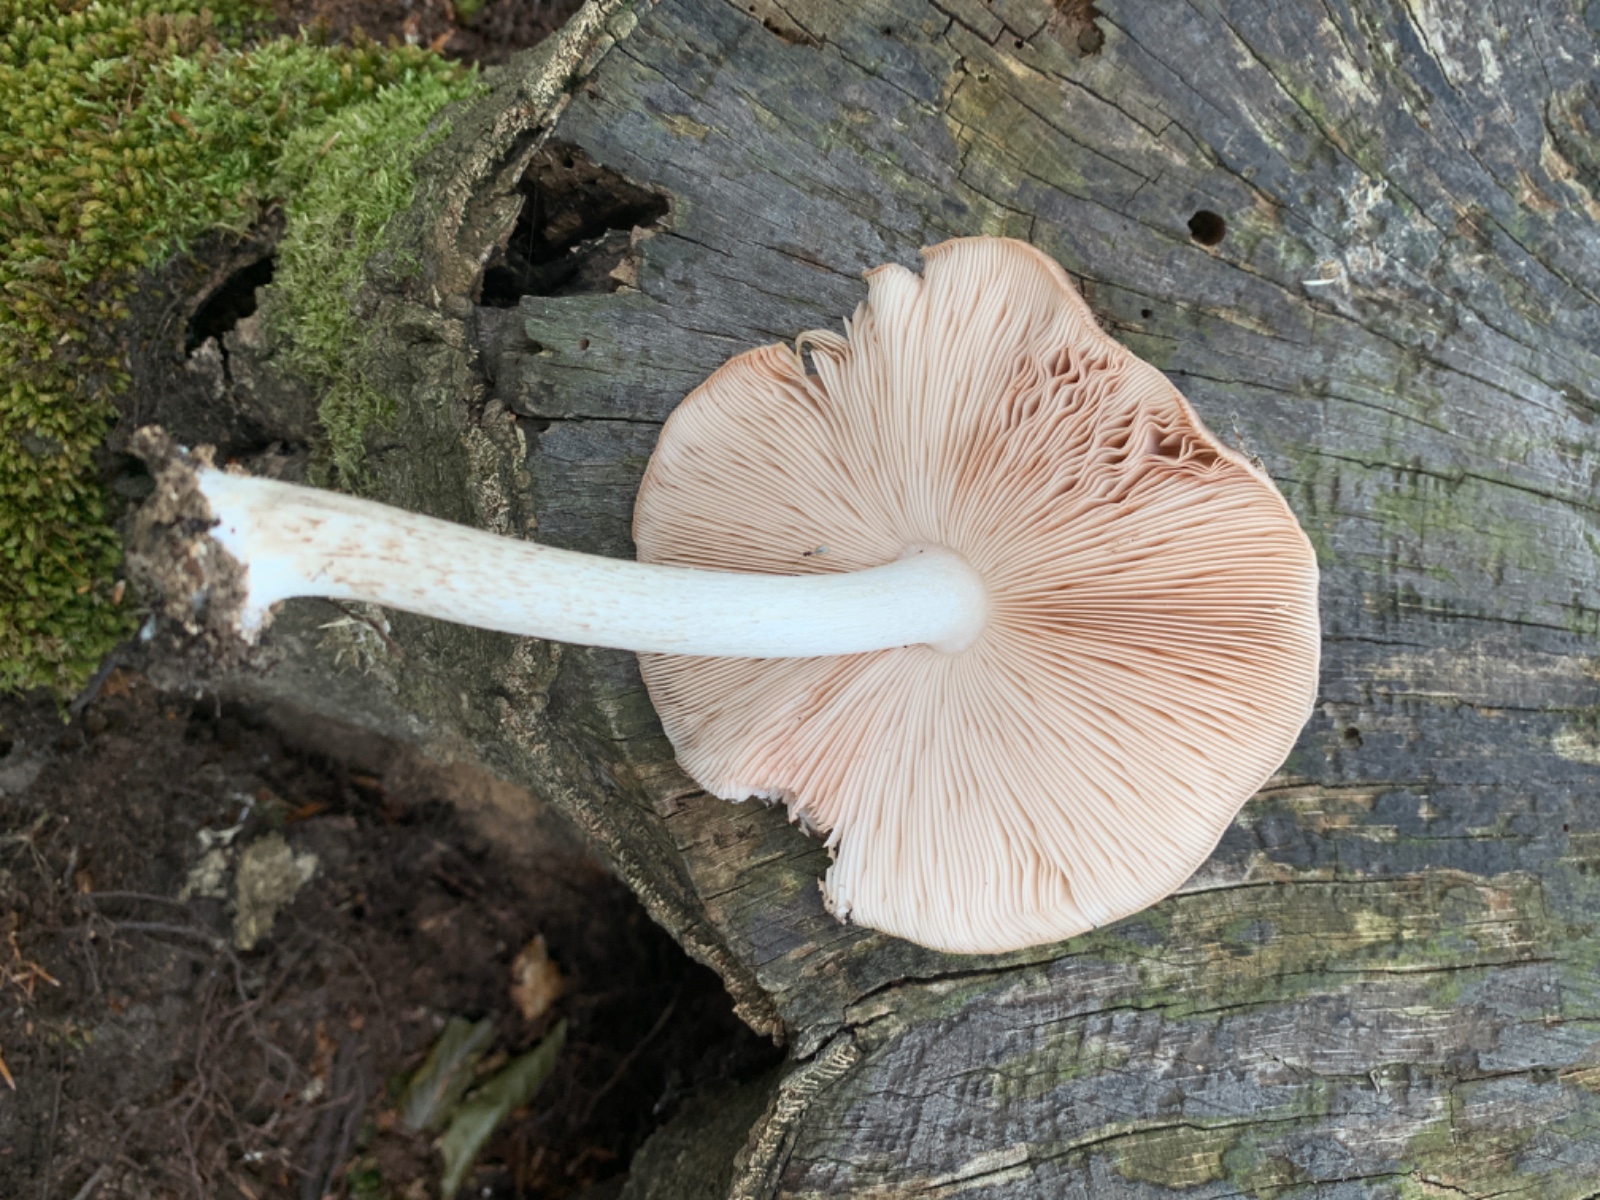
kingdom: Fungi
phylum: Basidiomycota
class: Agaricomycetes
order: Agaricales
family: Pluteaceae
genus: Pluteus
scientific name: Pluteus cervinus
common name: sodfarvet skærmhat
